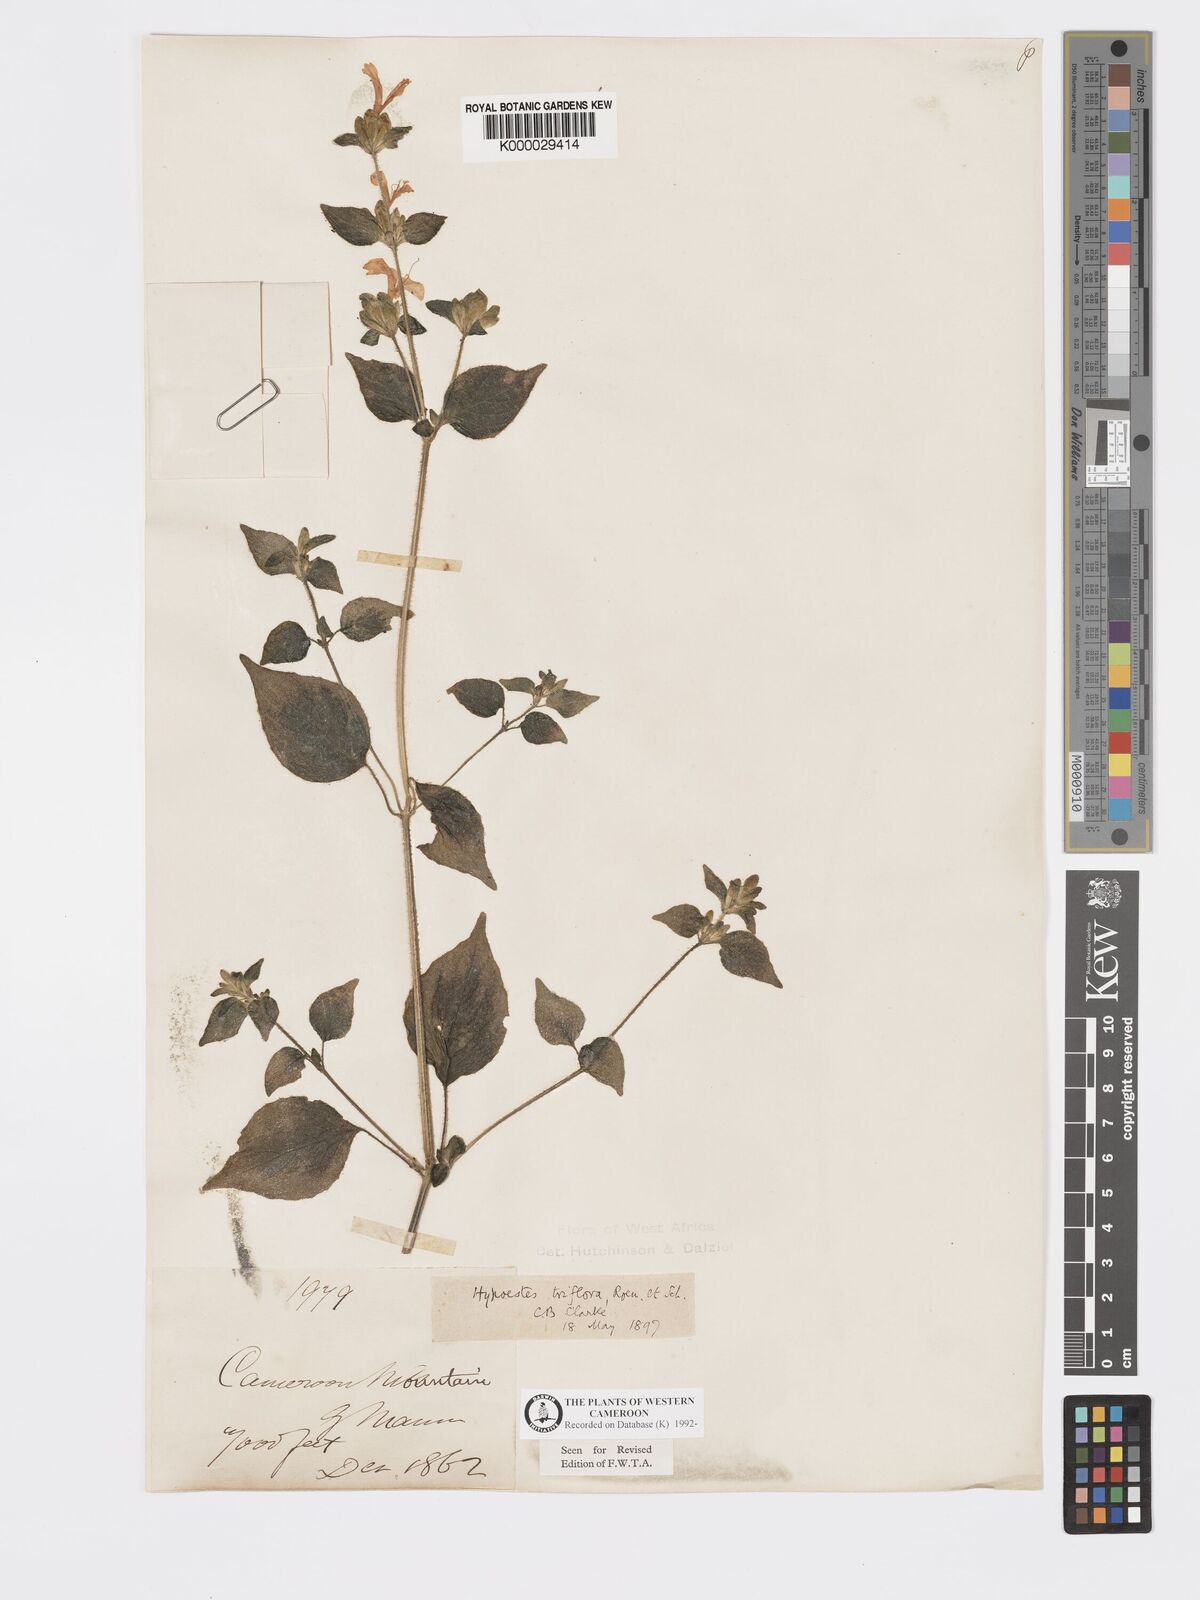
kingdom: Plantae
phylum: Tracheophyta
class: Magnoliopsida
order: Lamiales
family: Acanthaceae
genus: Hypoestes
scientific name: Hypoestes triflora
